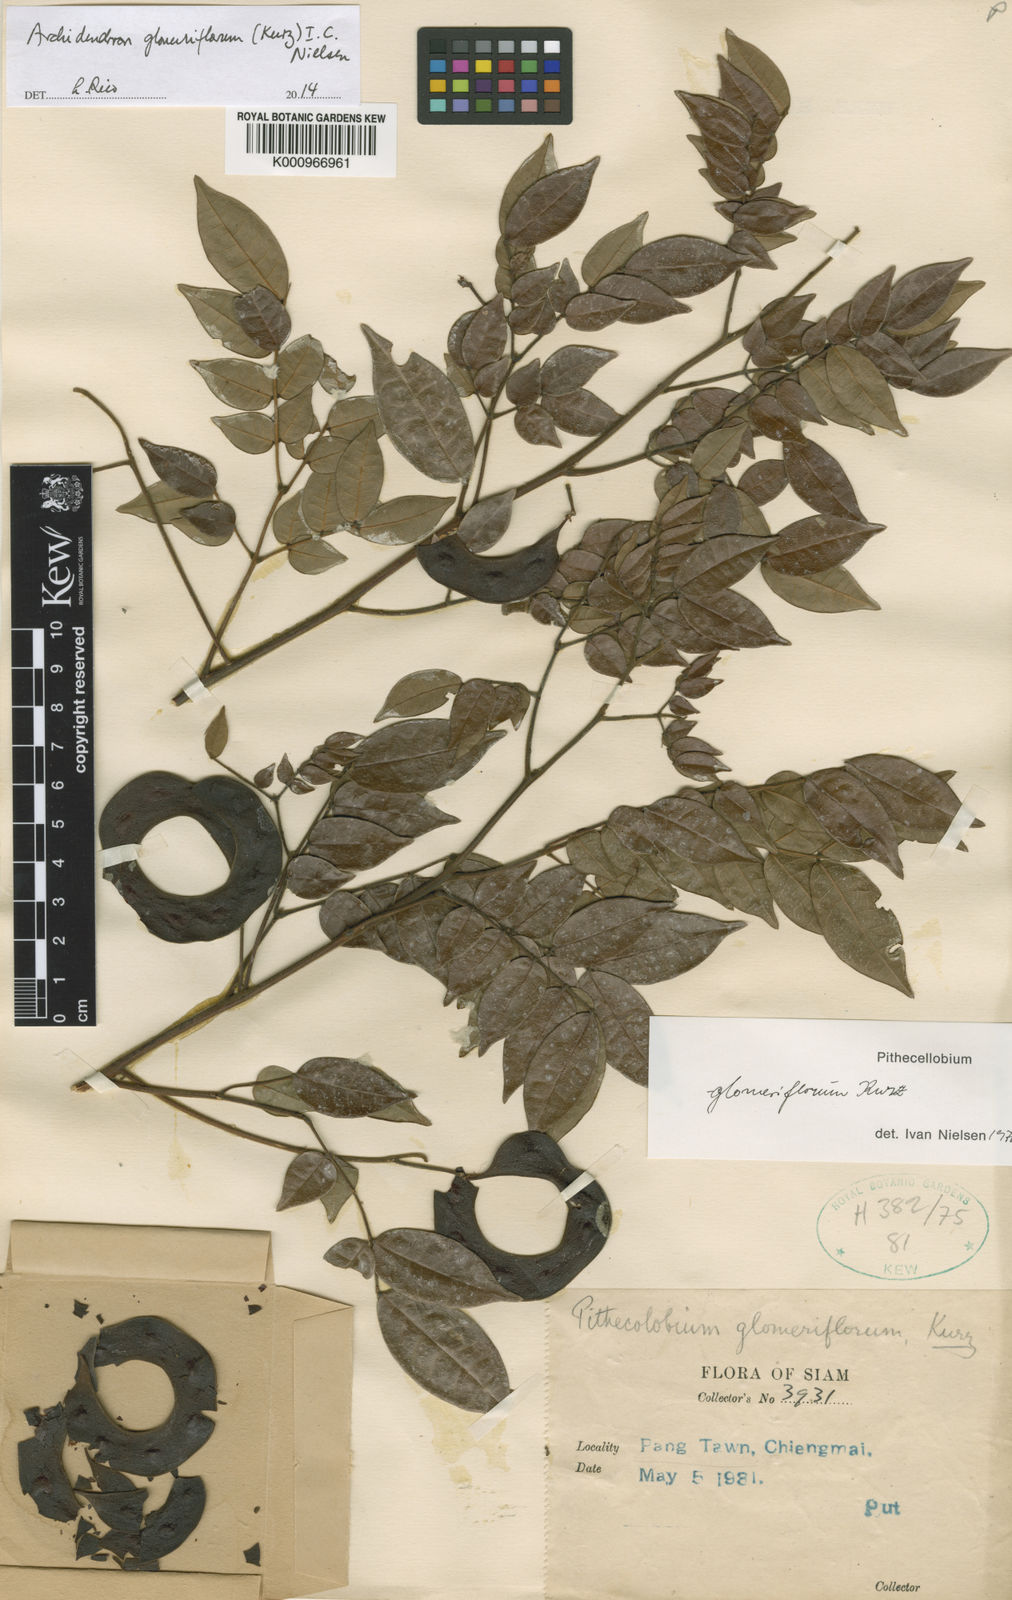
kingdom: Plantae
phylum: Tracheophyta
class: Magnoliopsida
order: Fabales
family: Fabaceae
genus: Archidendron
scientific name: Archidendron glomeriflorum
